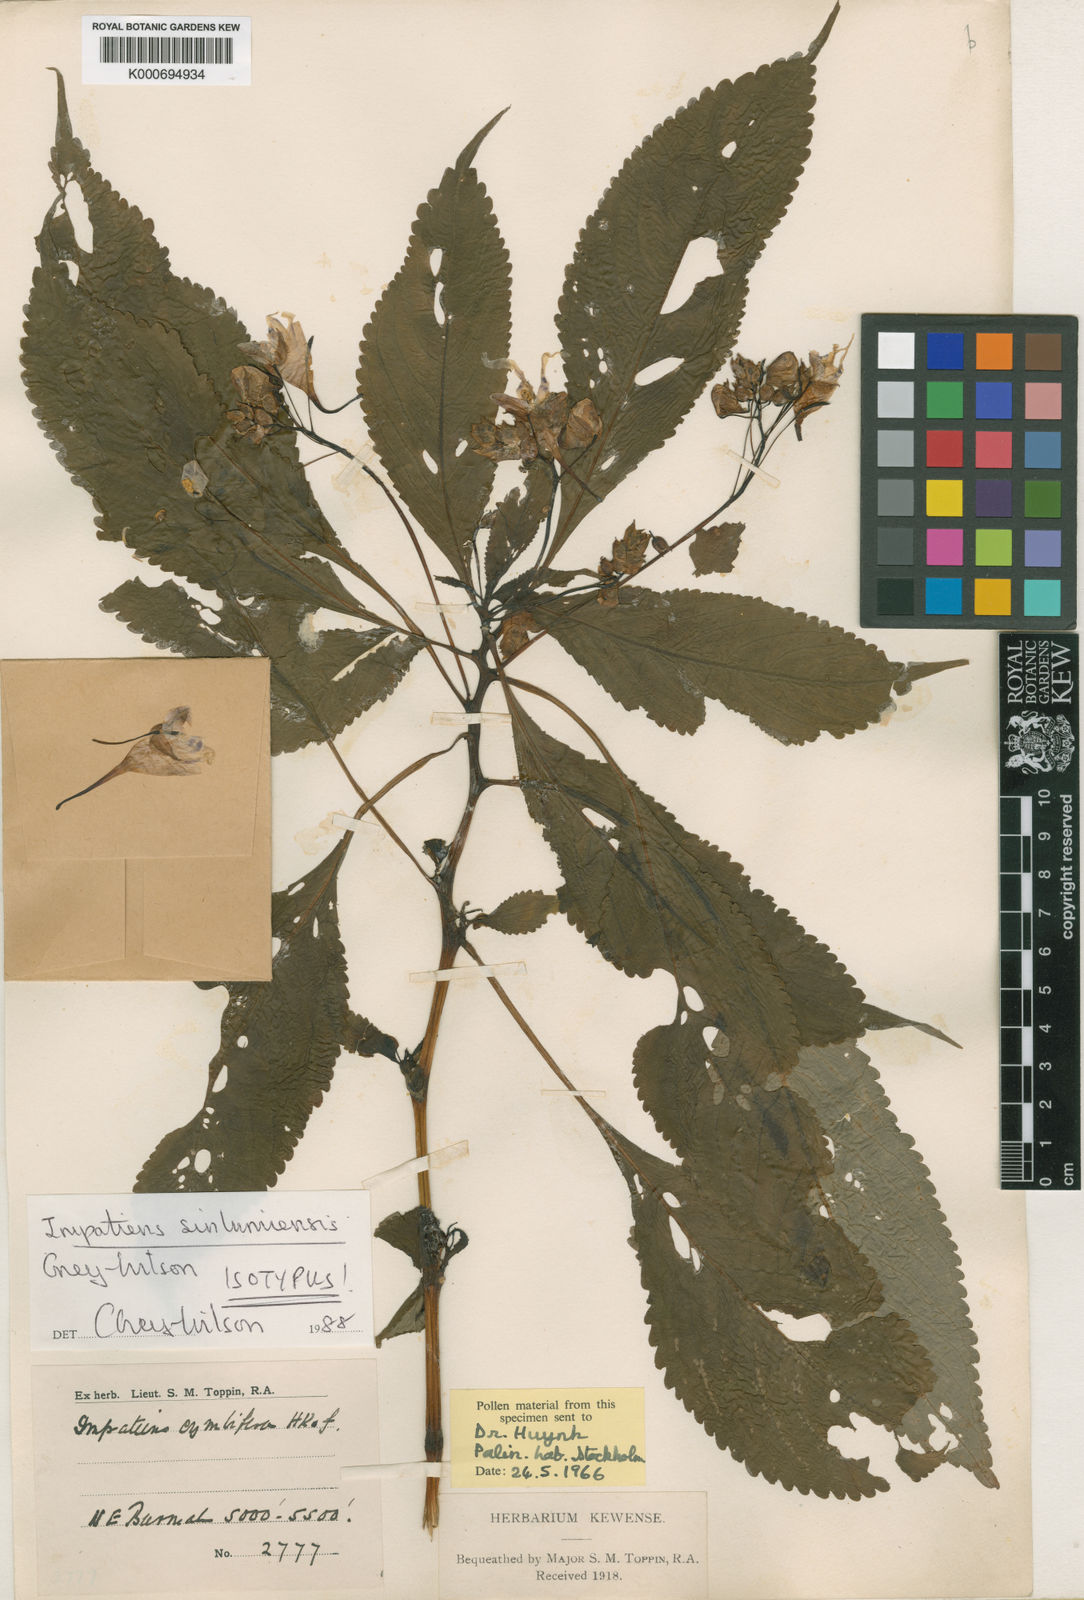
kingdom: Plantae
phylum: Tracheophyta
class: Magnoliopsida
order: Ericales
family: Balsaminaceae
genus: Impatiens
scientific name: Impatiens sinlumiensis
